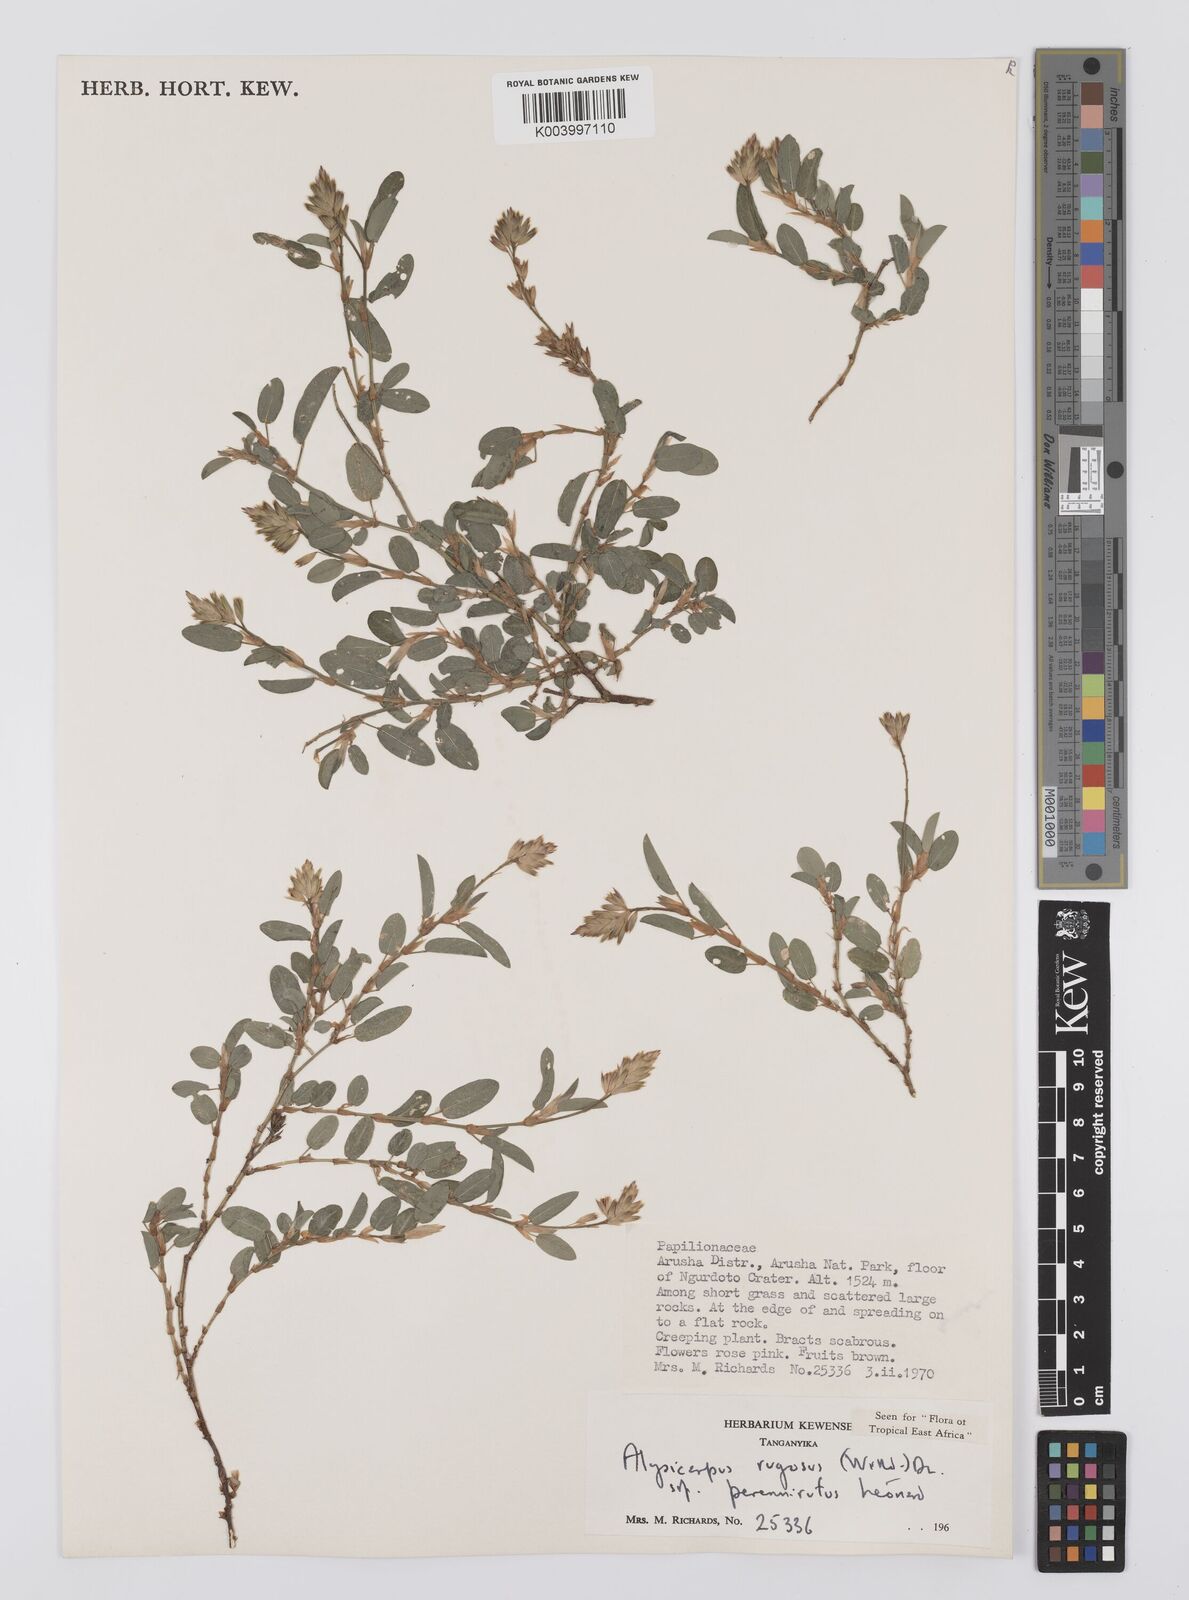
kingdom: Plantae
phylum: Tracheophyta
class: Magnoliopsida
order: Fabales
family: Fabaceae
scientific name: Fabaceae
